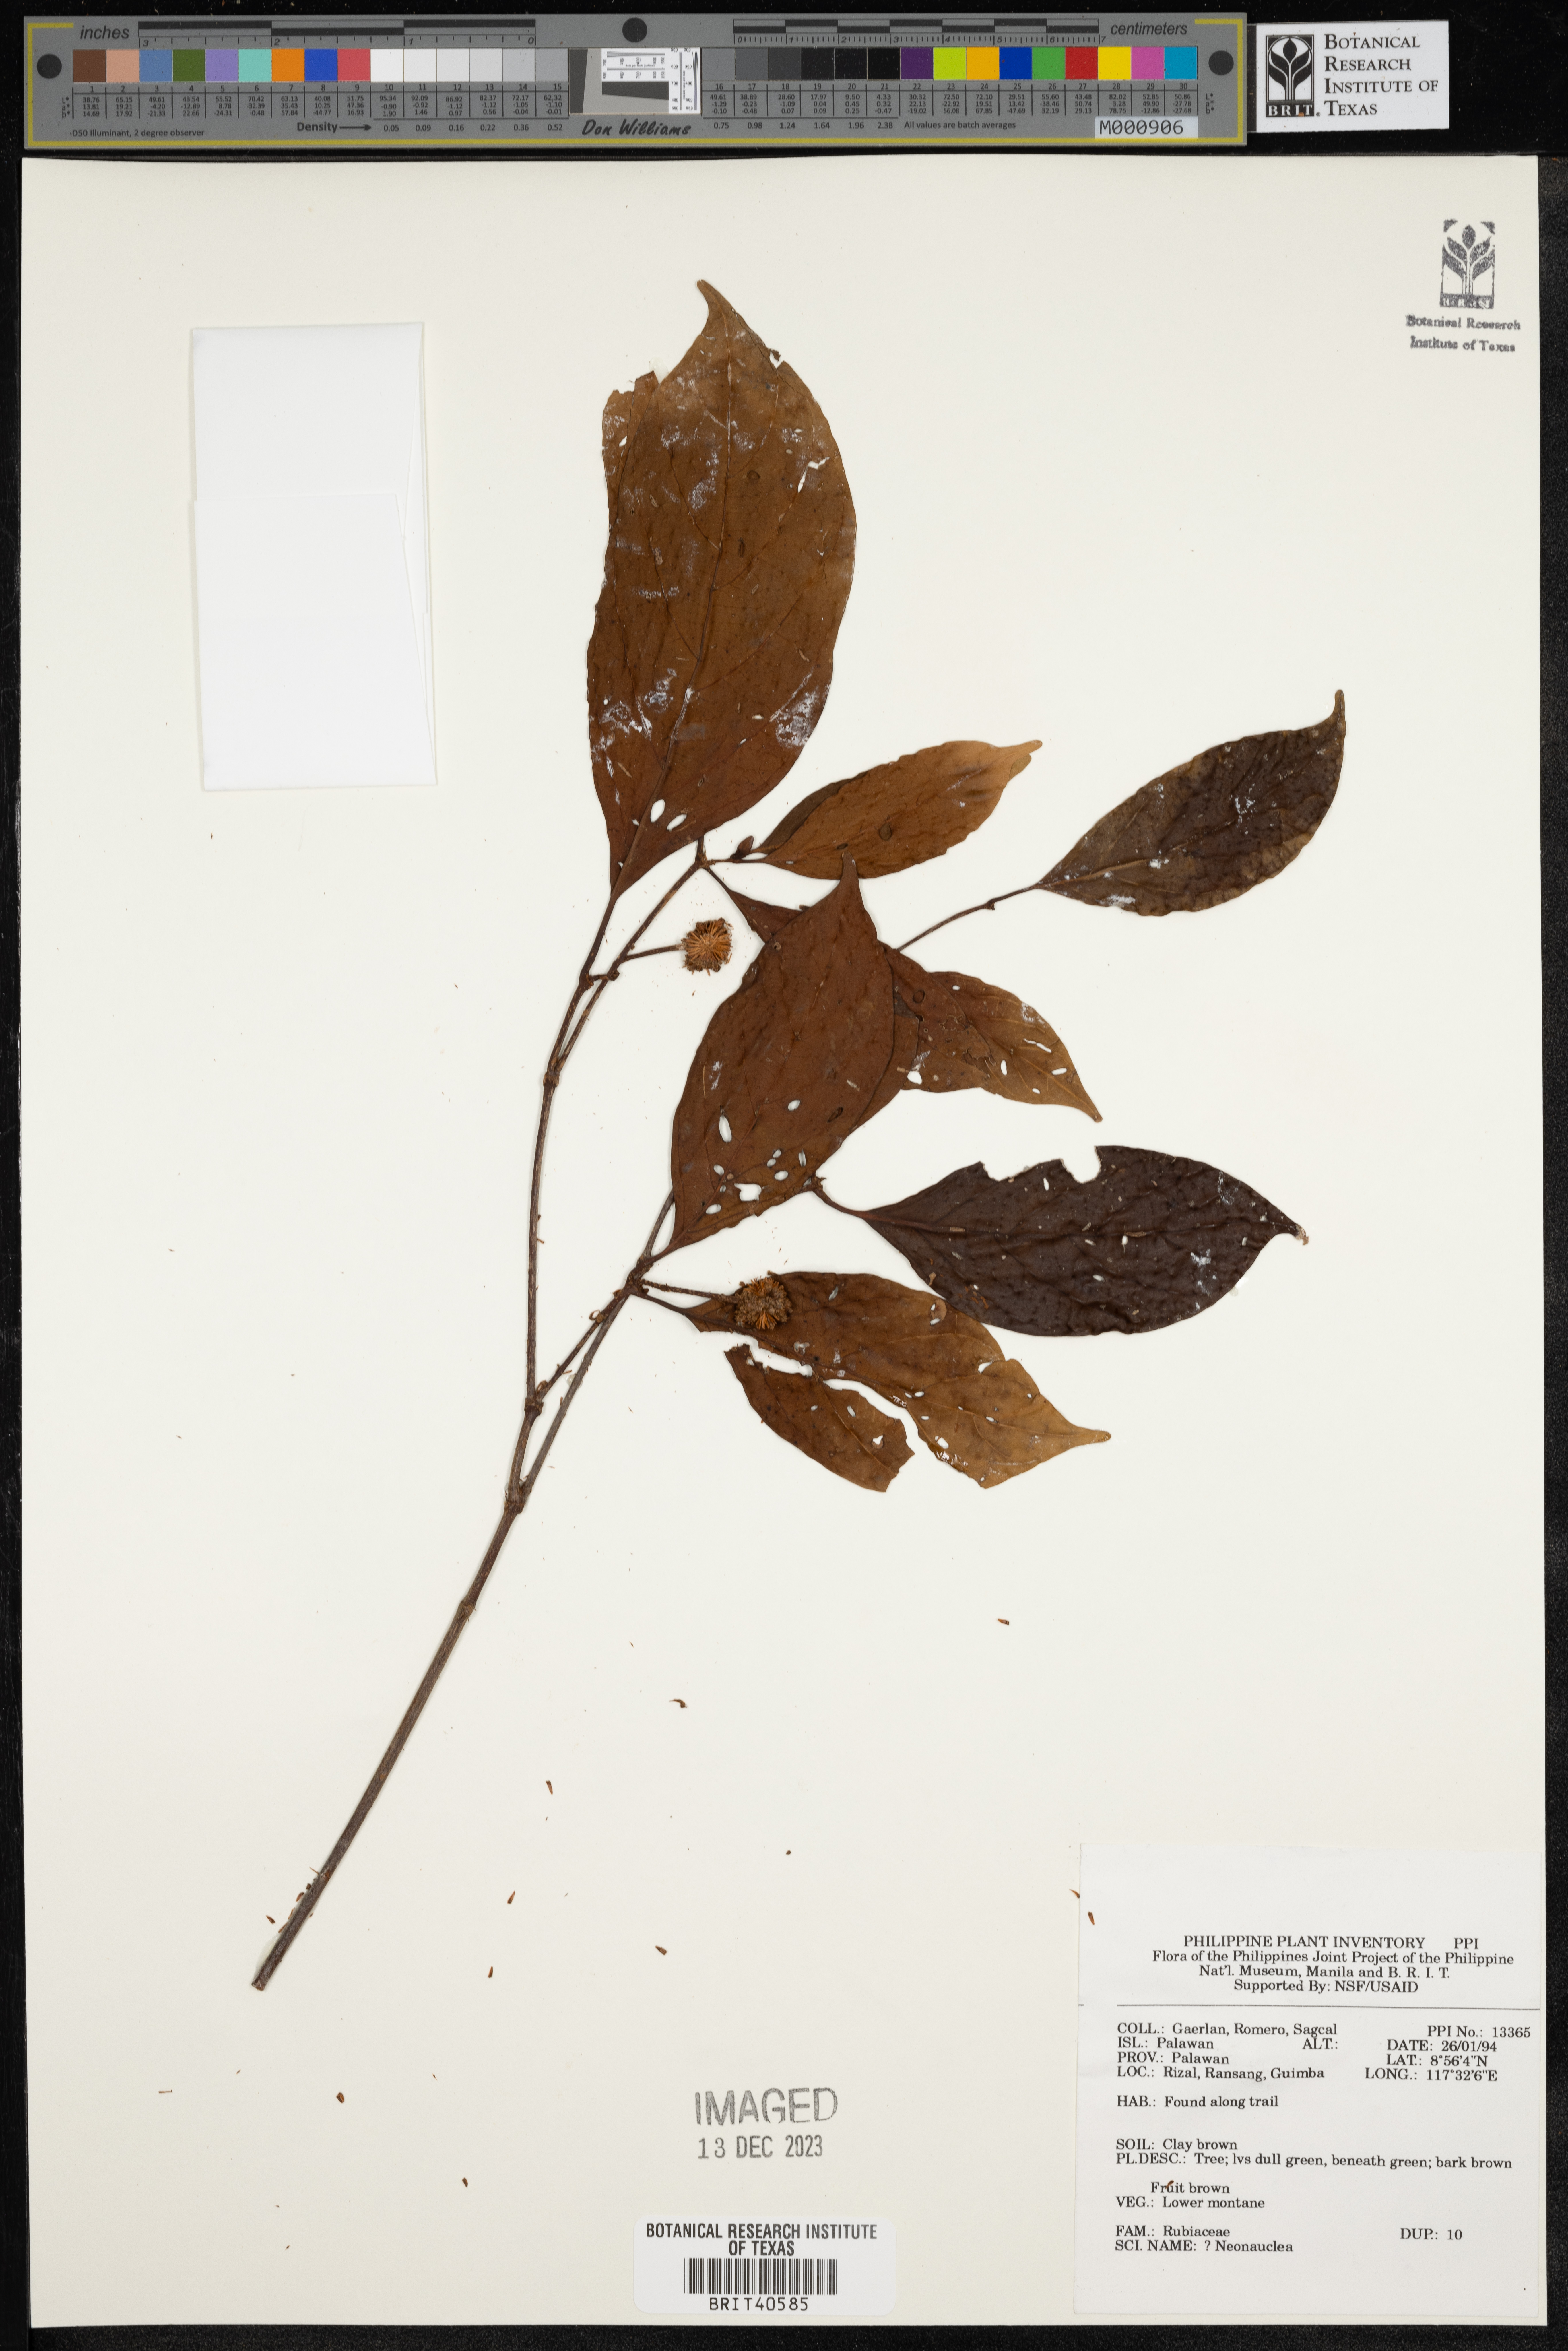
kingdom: Plantae
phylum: Tracheophyta
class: Magnoliopsida
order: Gentianales
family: Rubiaceae
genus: Neonauclea
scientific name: Neonauclea
